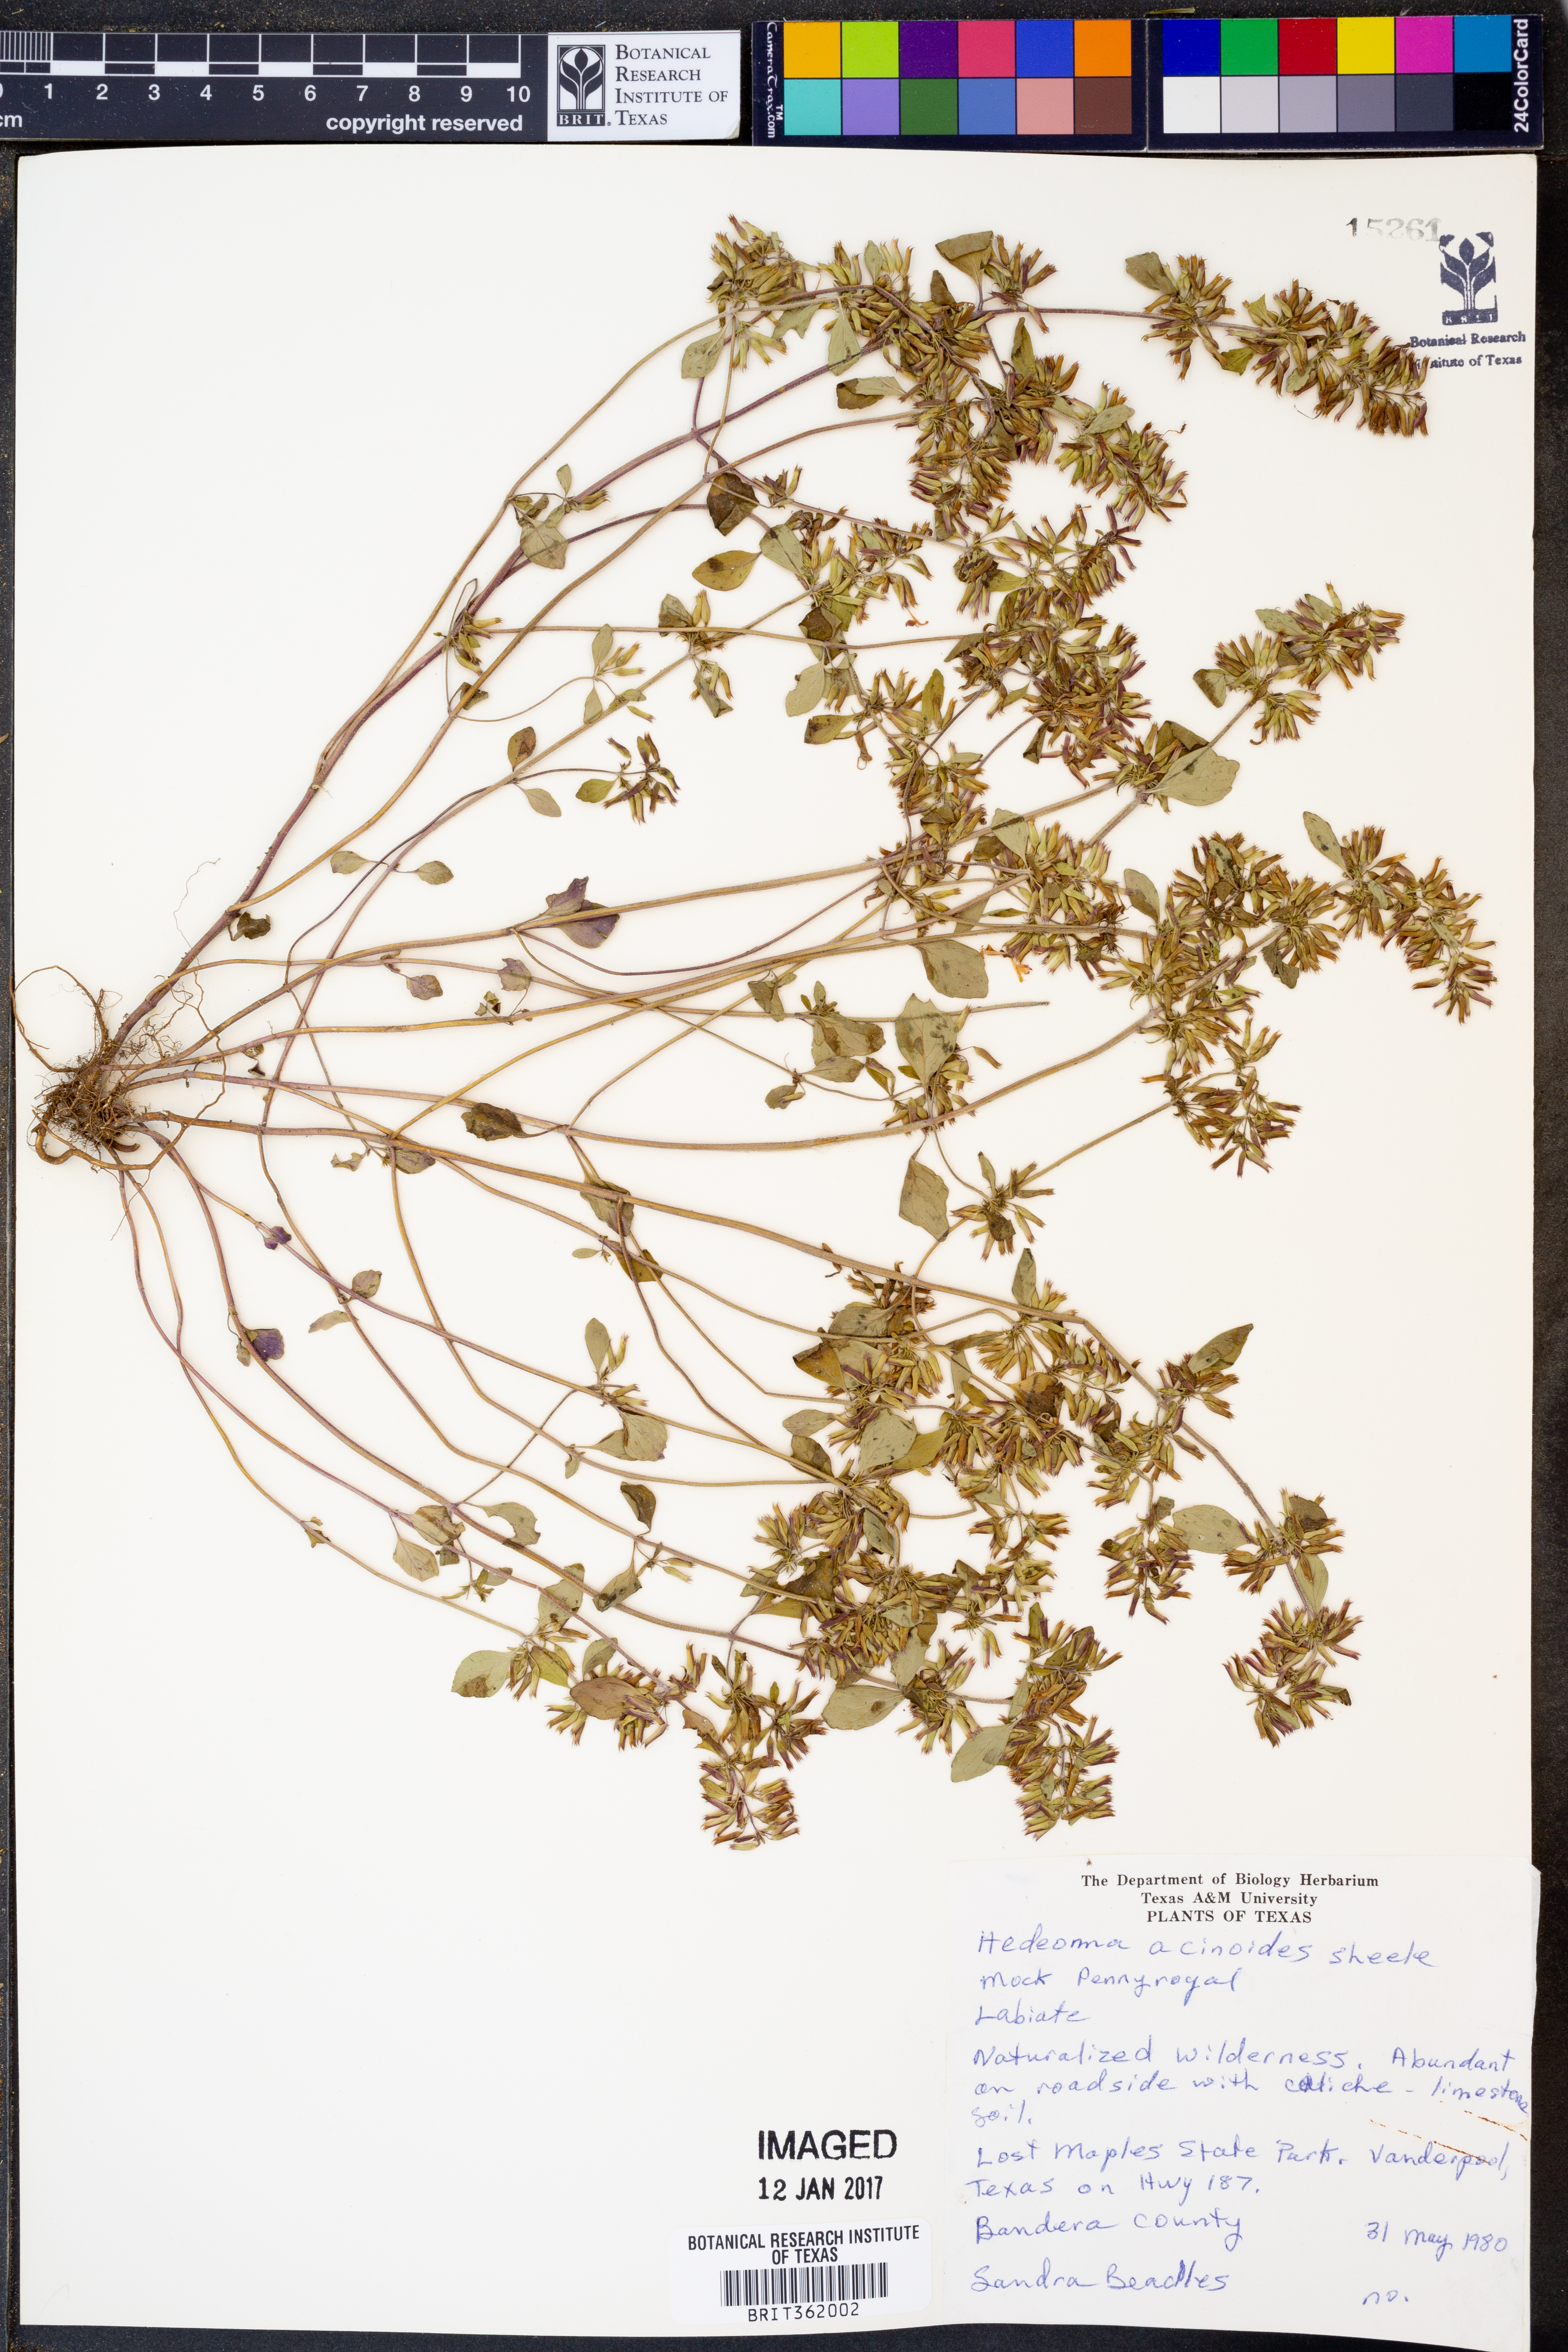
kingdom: Plantae
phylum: Tracheophyta
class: Magnoliopsida
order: Lamiales
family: Lamiaceae
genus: Hedeoma
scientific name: Hedeoma acinoides
